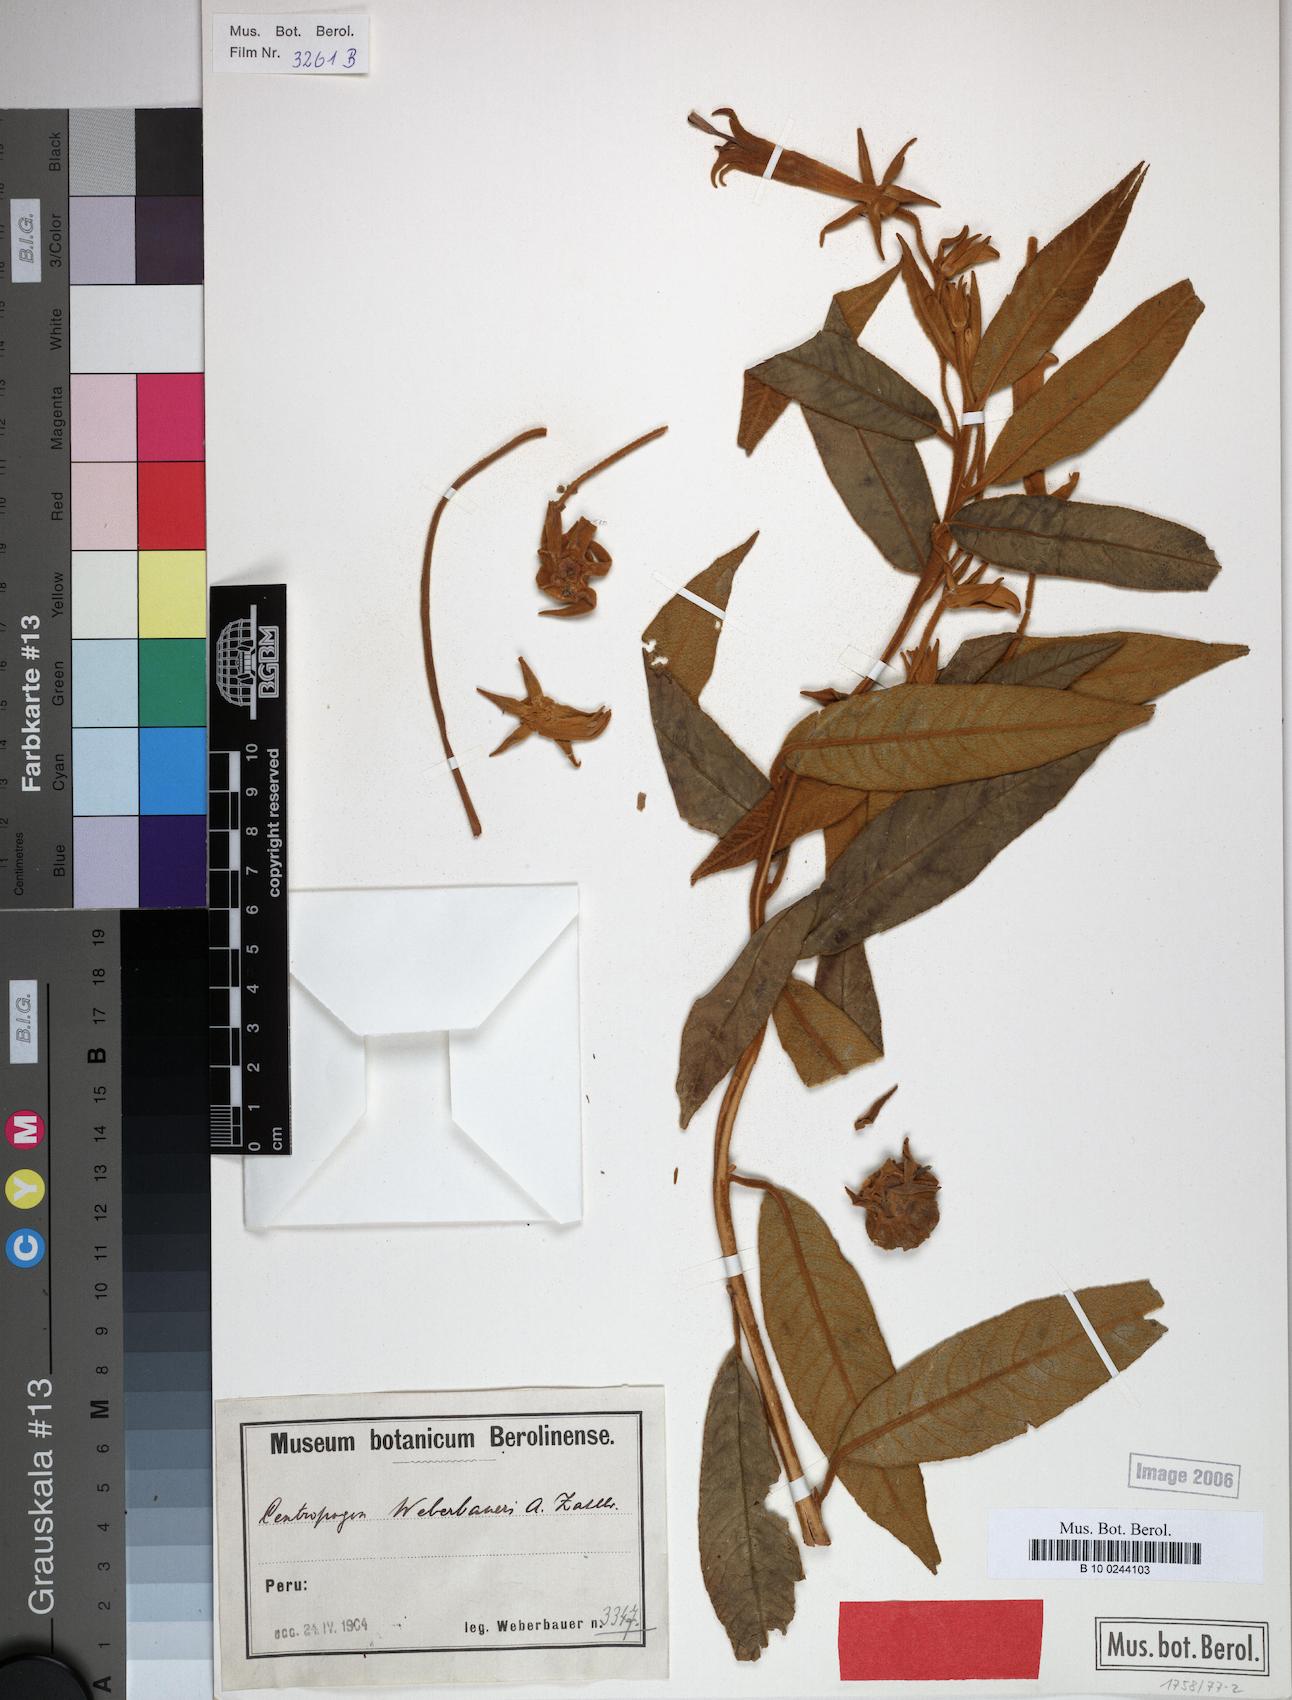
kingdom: Plantae
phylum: Tracheophyta
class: Magnoliopsida
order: Asterales
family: Campanulaceae
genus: Centropogon
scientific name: Centropogon weberbaueri
